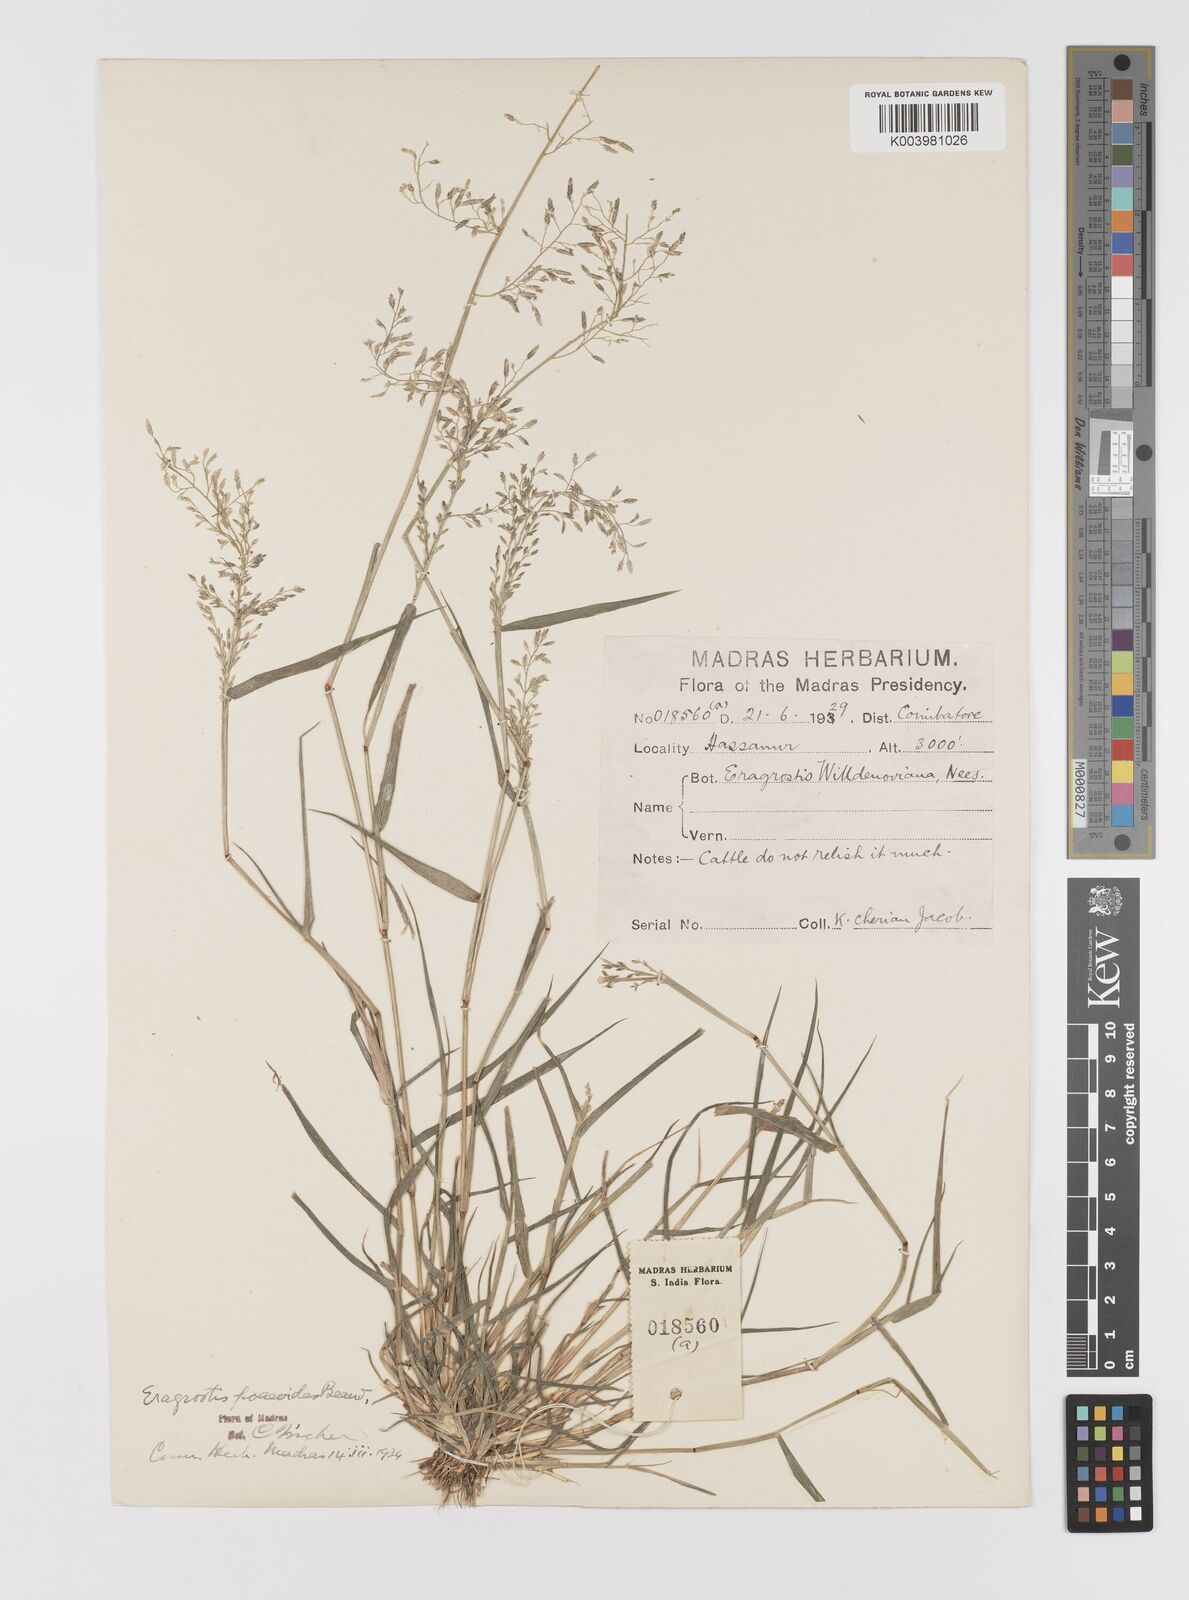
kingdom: Plantae
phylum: Tracheophyta
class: Liliopsida
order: Poales
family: Poaceae
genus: Eragrostis
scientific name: Eragrostis minor
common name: Small love-grass
